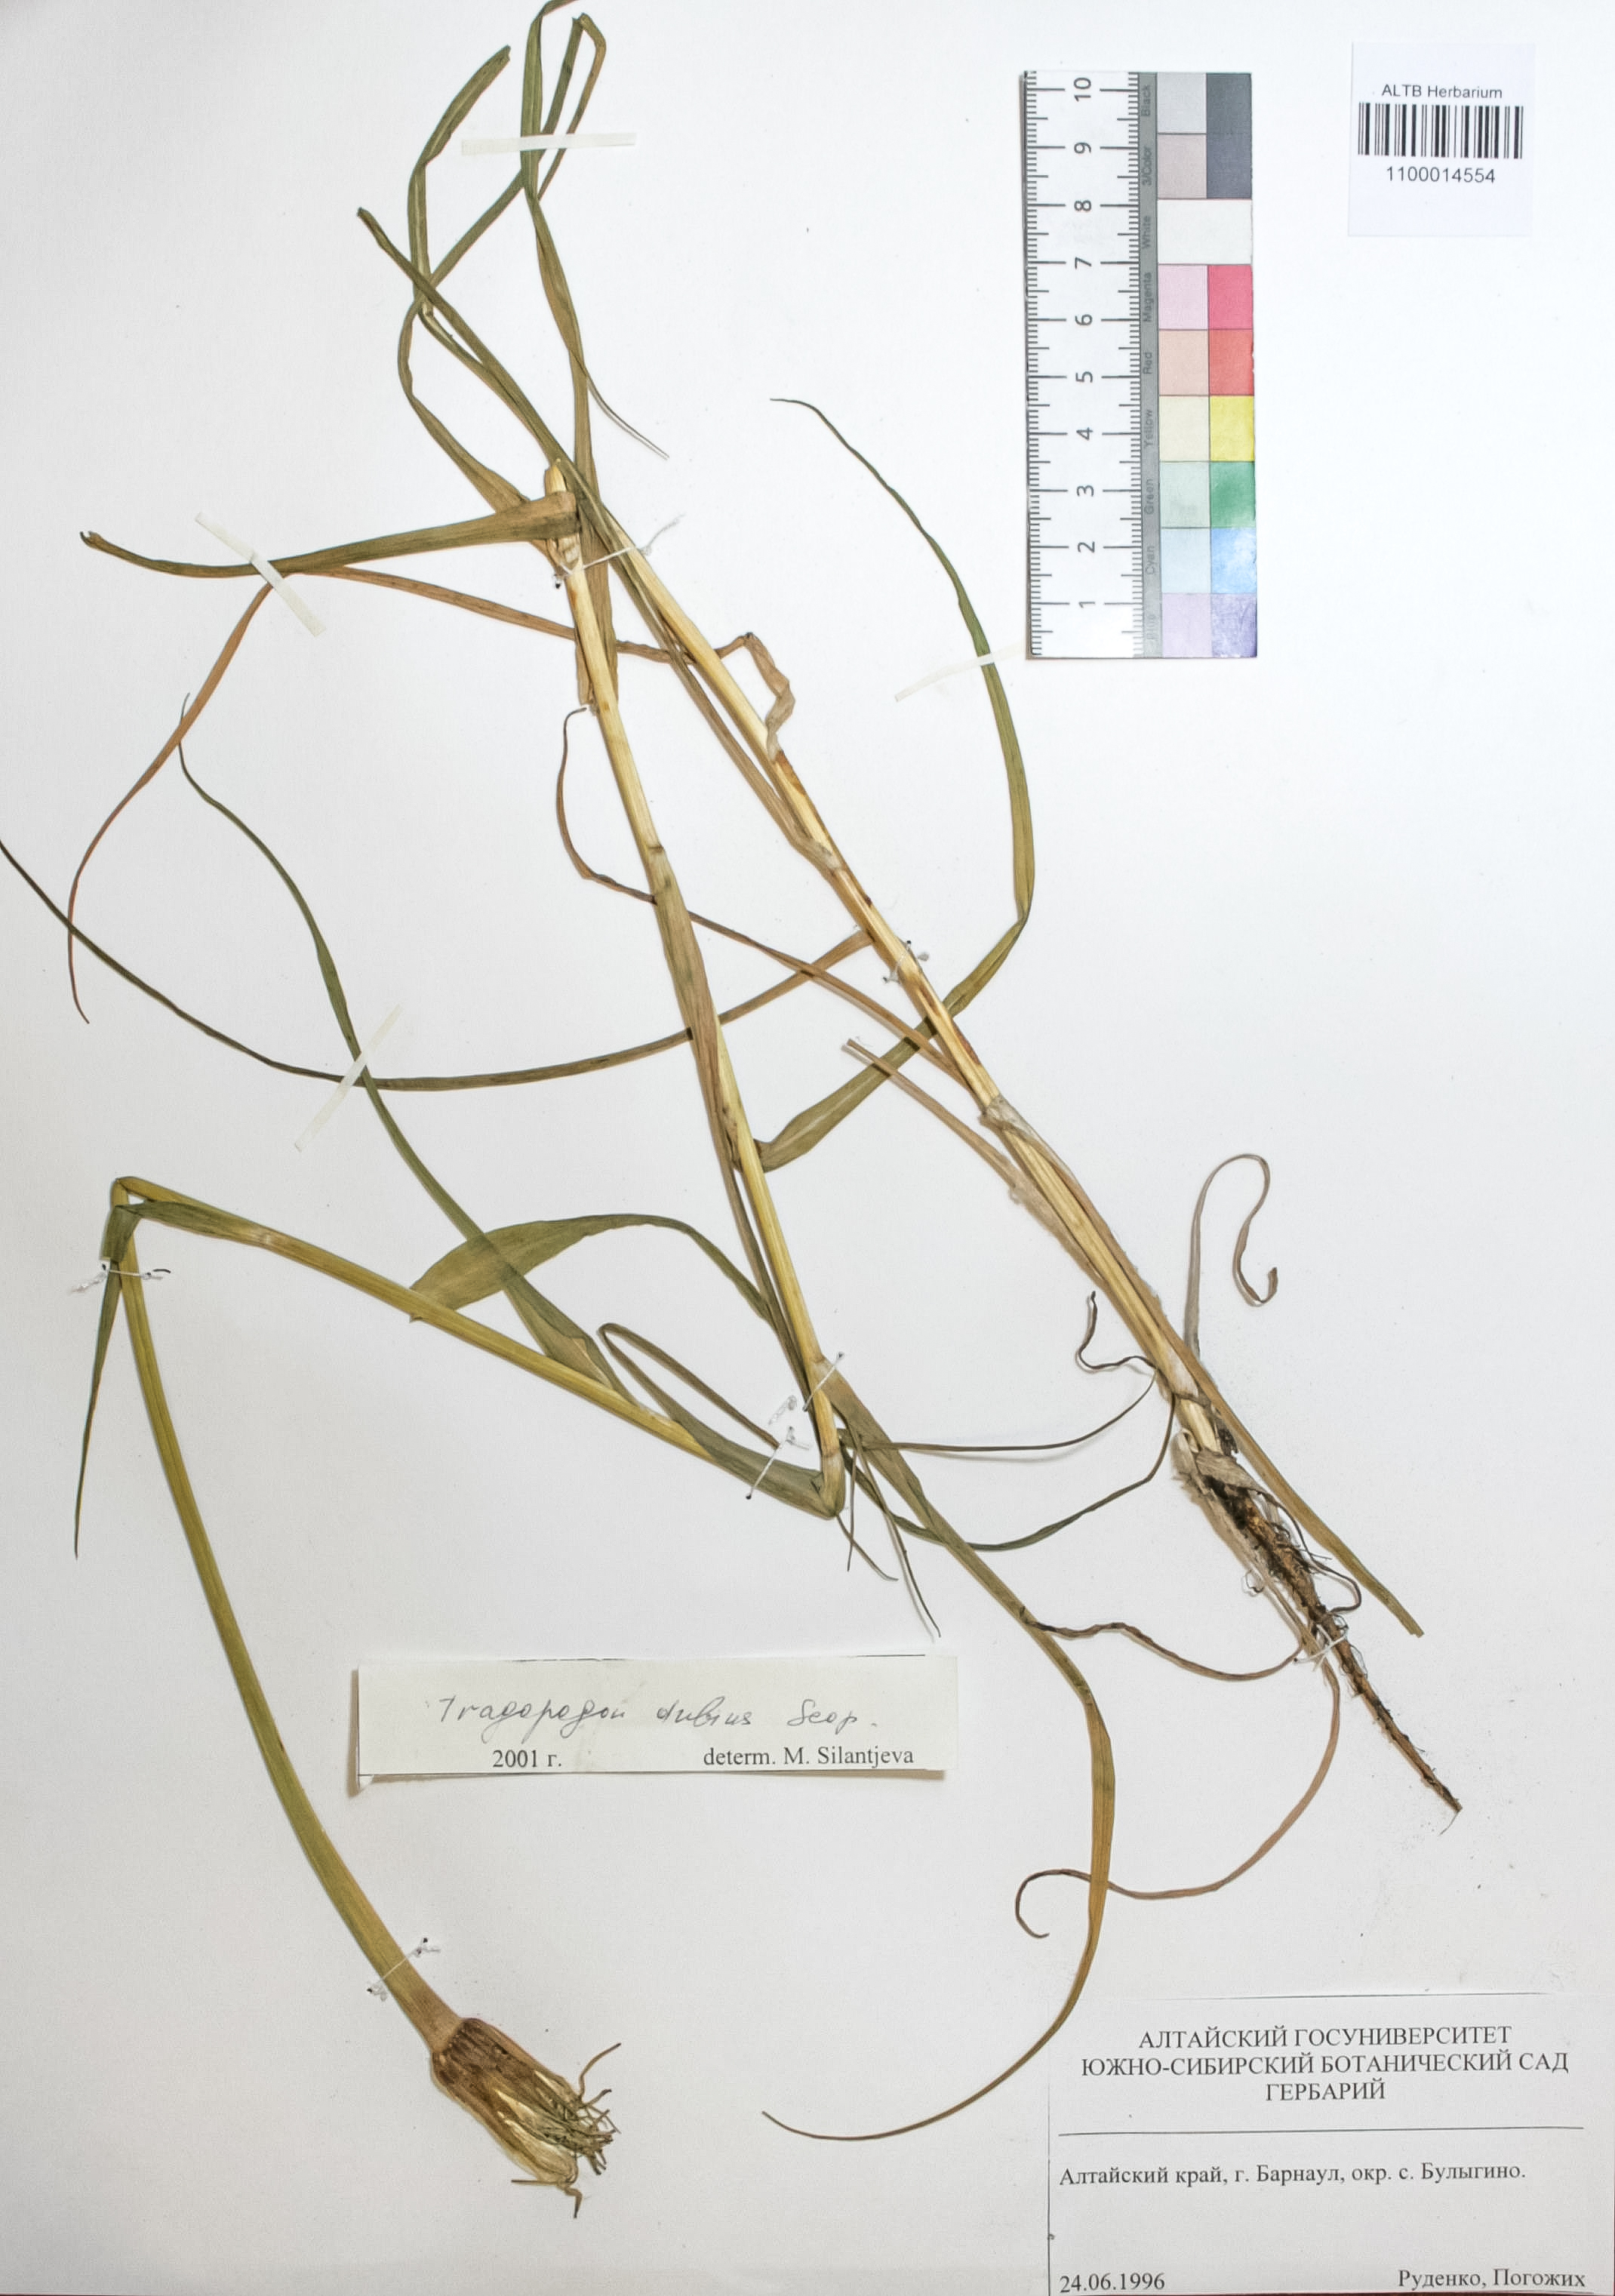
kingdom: Plantae
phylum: Tracheophyta
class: Magnoliopsida
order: Asterales
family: Asteraceae
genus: Tragopogon
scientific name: Tragopogon dubius
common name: Yellow salsify
